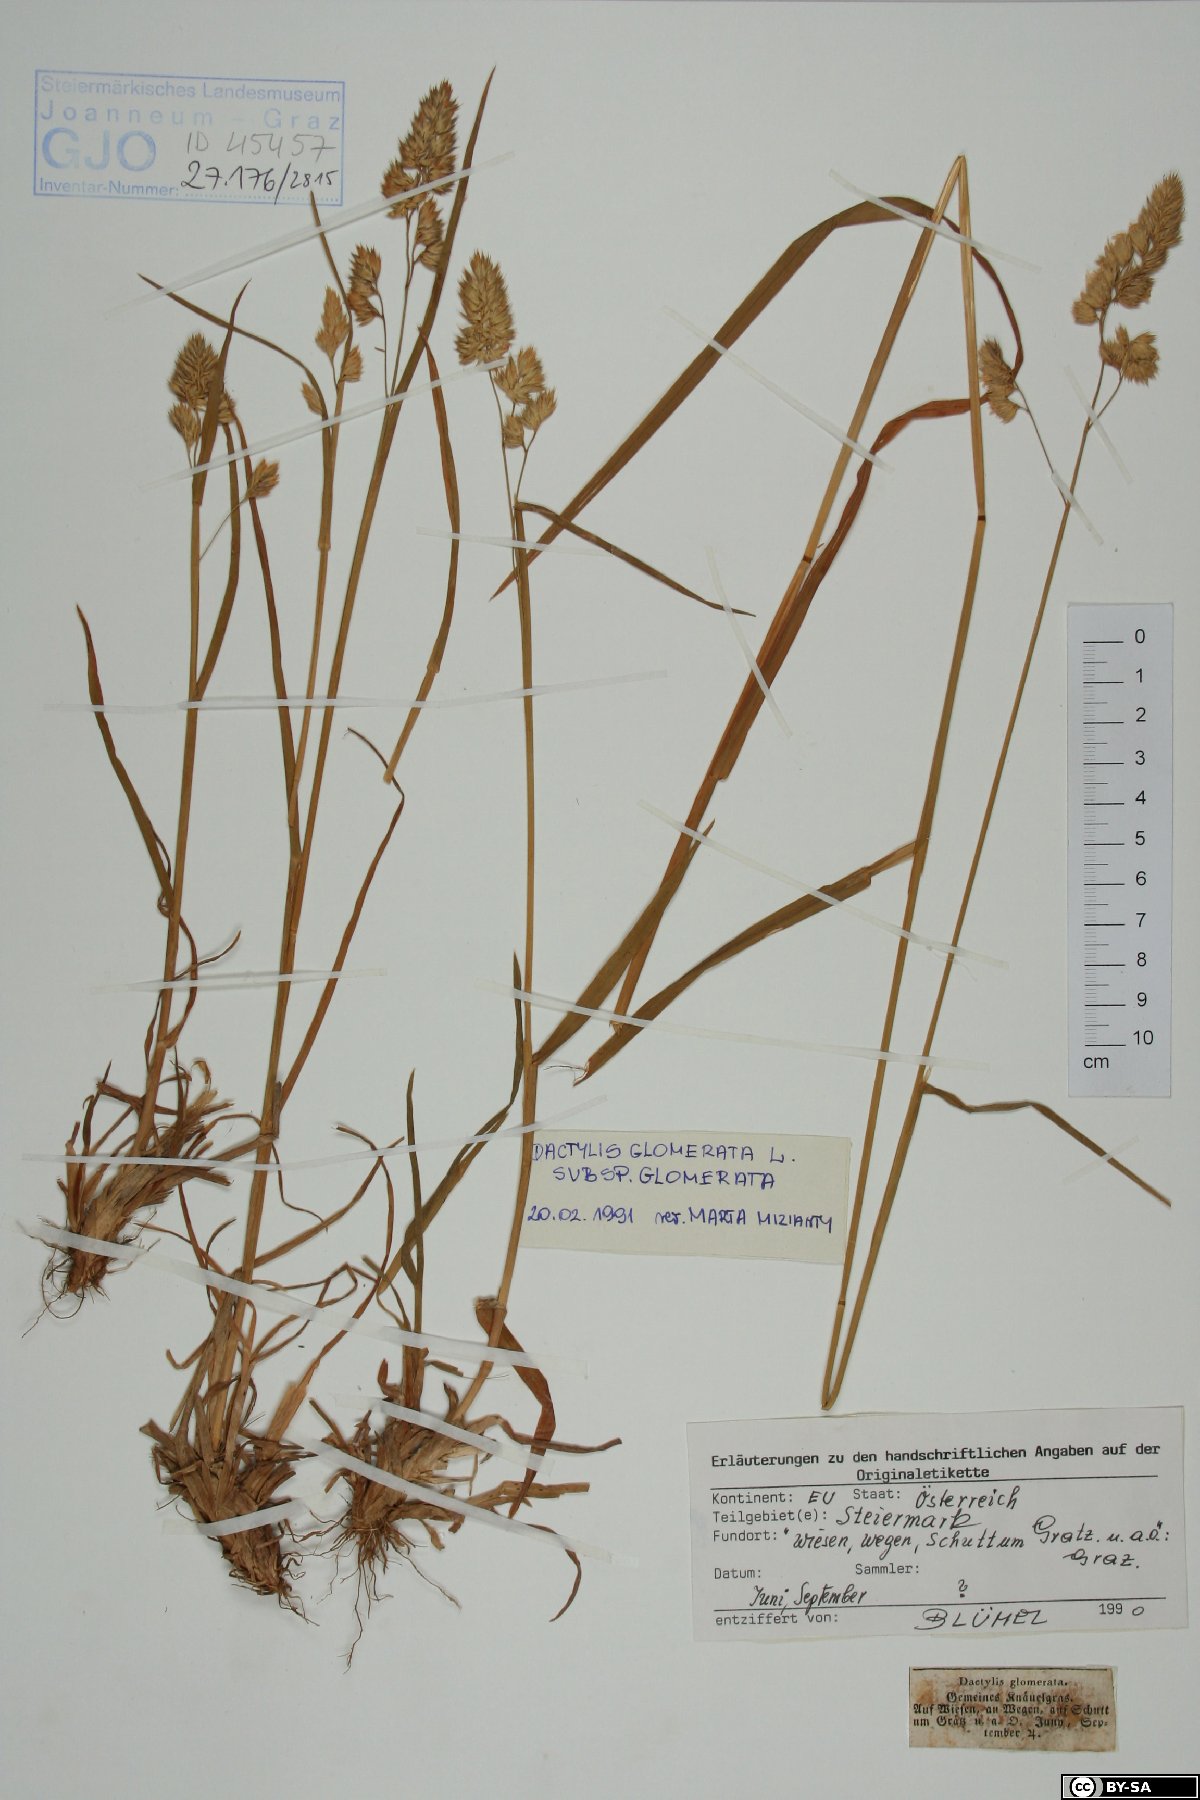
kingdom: Plantae
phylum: Tracheophyta
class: Liliopsida
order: Poales
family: Poaceae
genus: Dactylis
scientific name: Dactylis glomerata
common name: Orchardgrass
